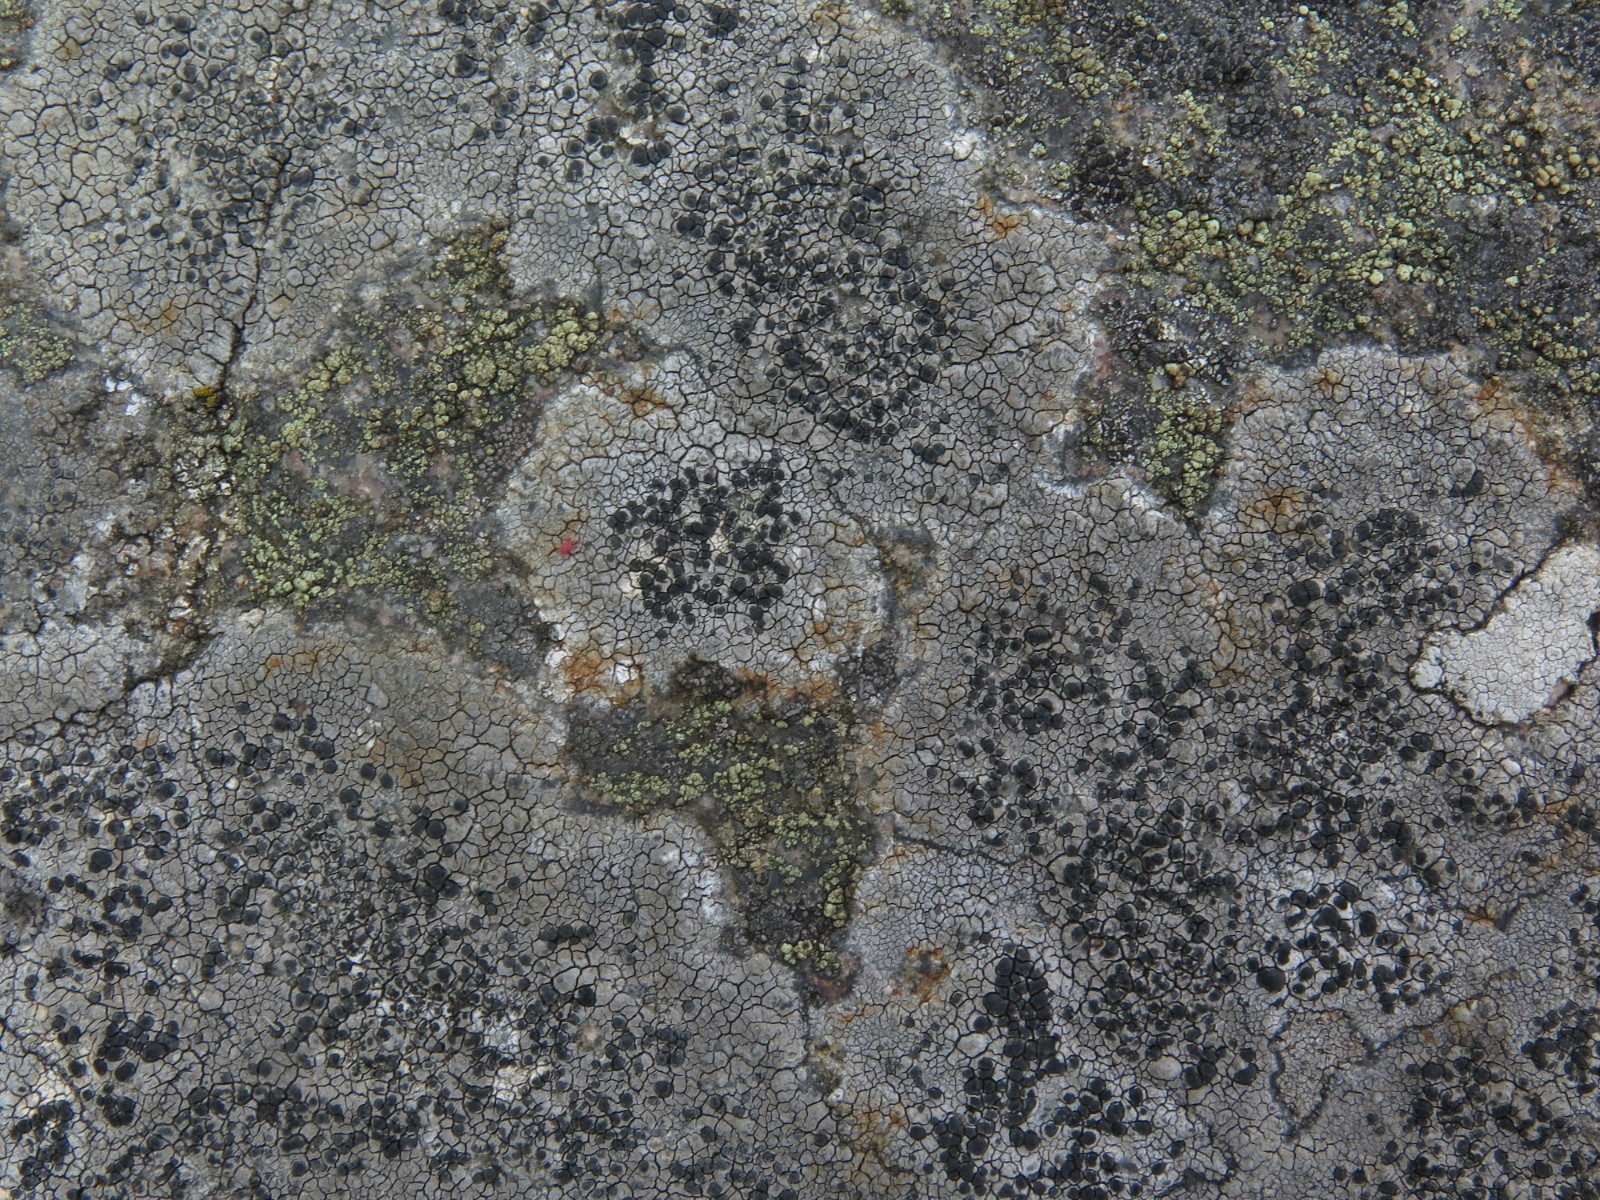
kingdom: Fungi
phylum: Ascomycota
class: Lecanoromycetes
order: Lecideales
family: Lecideaceae
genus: Lecidea
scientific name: Lecidea fuscoatra
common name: rudret skivelav
